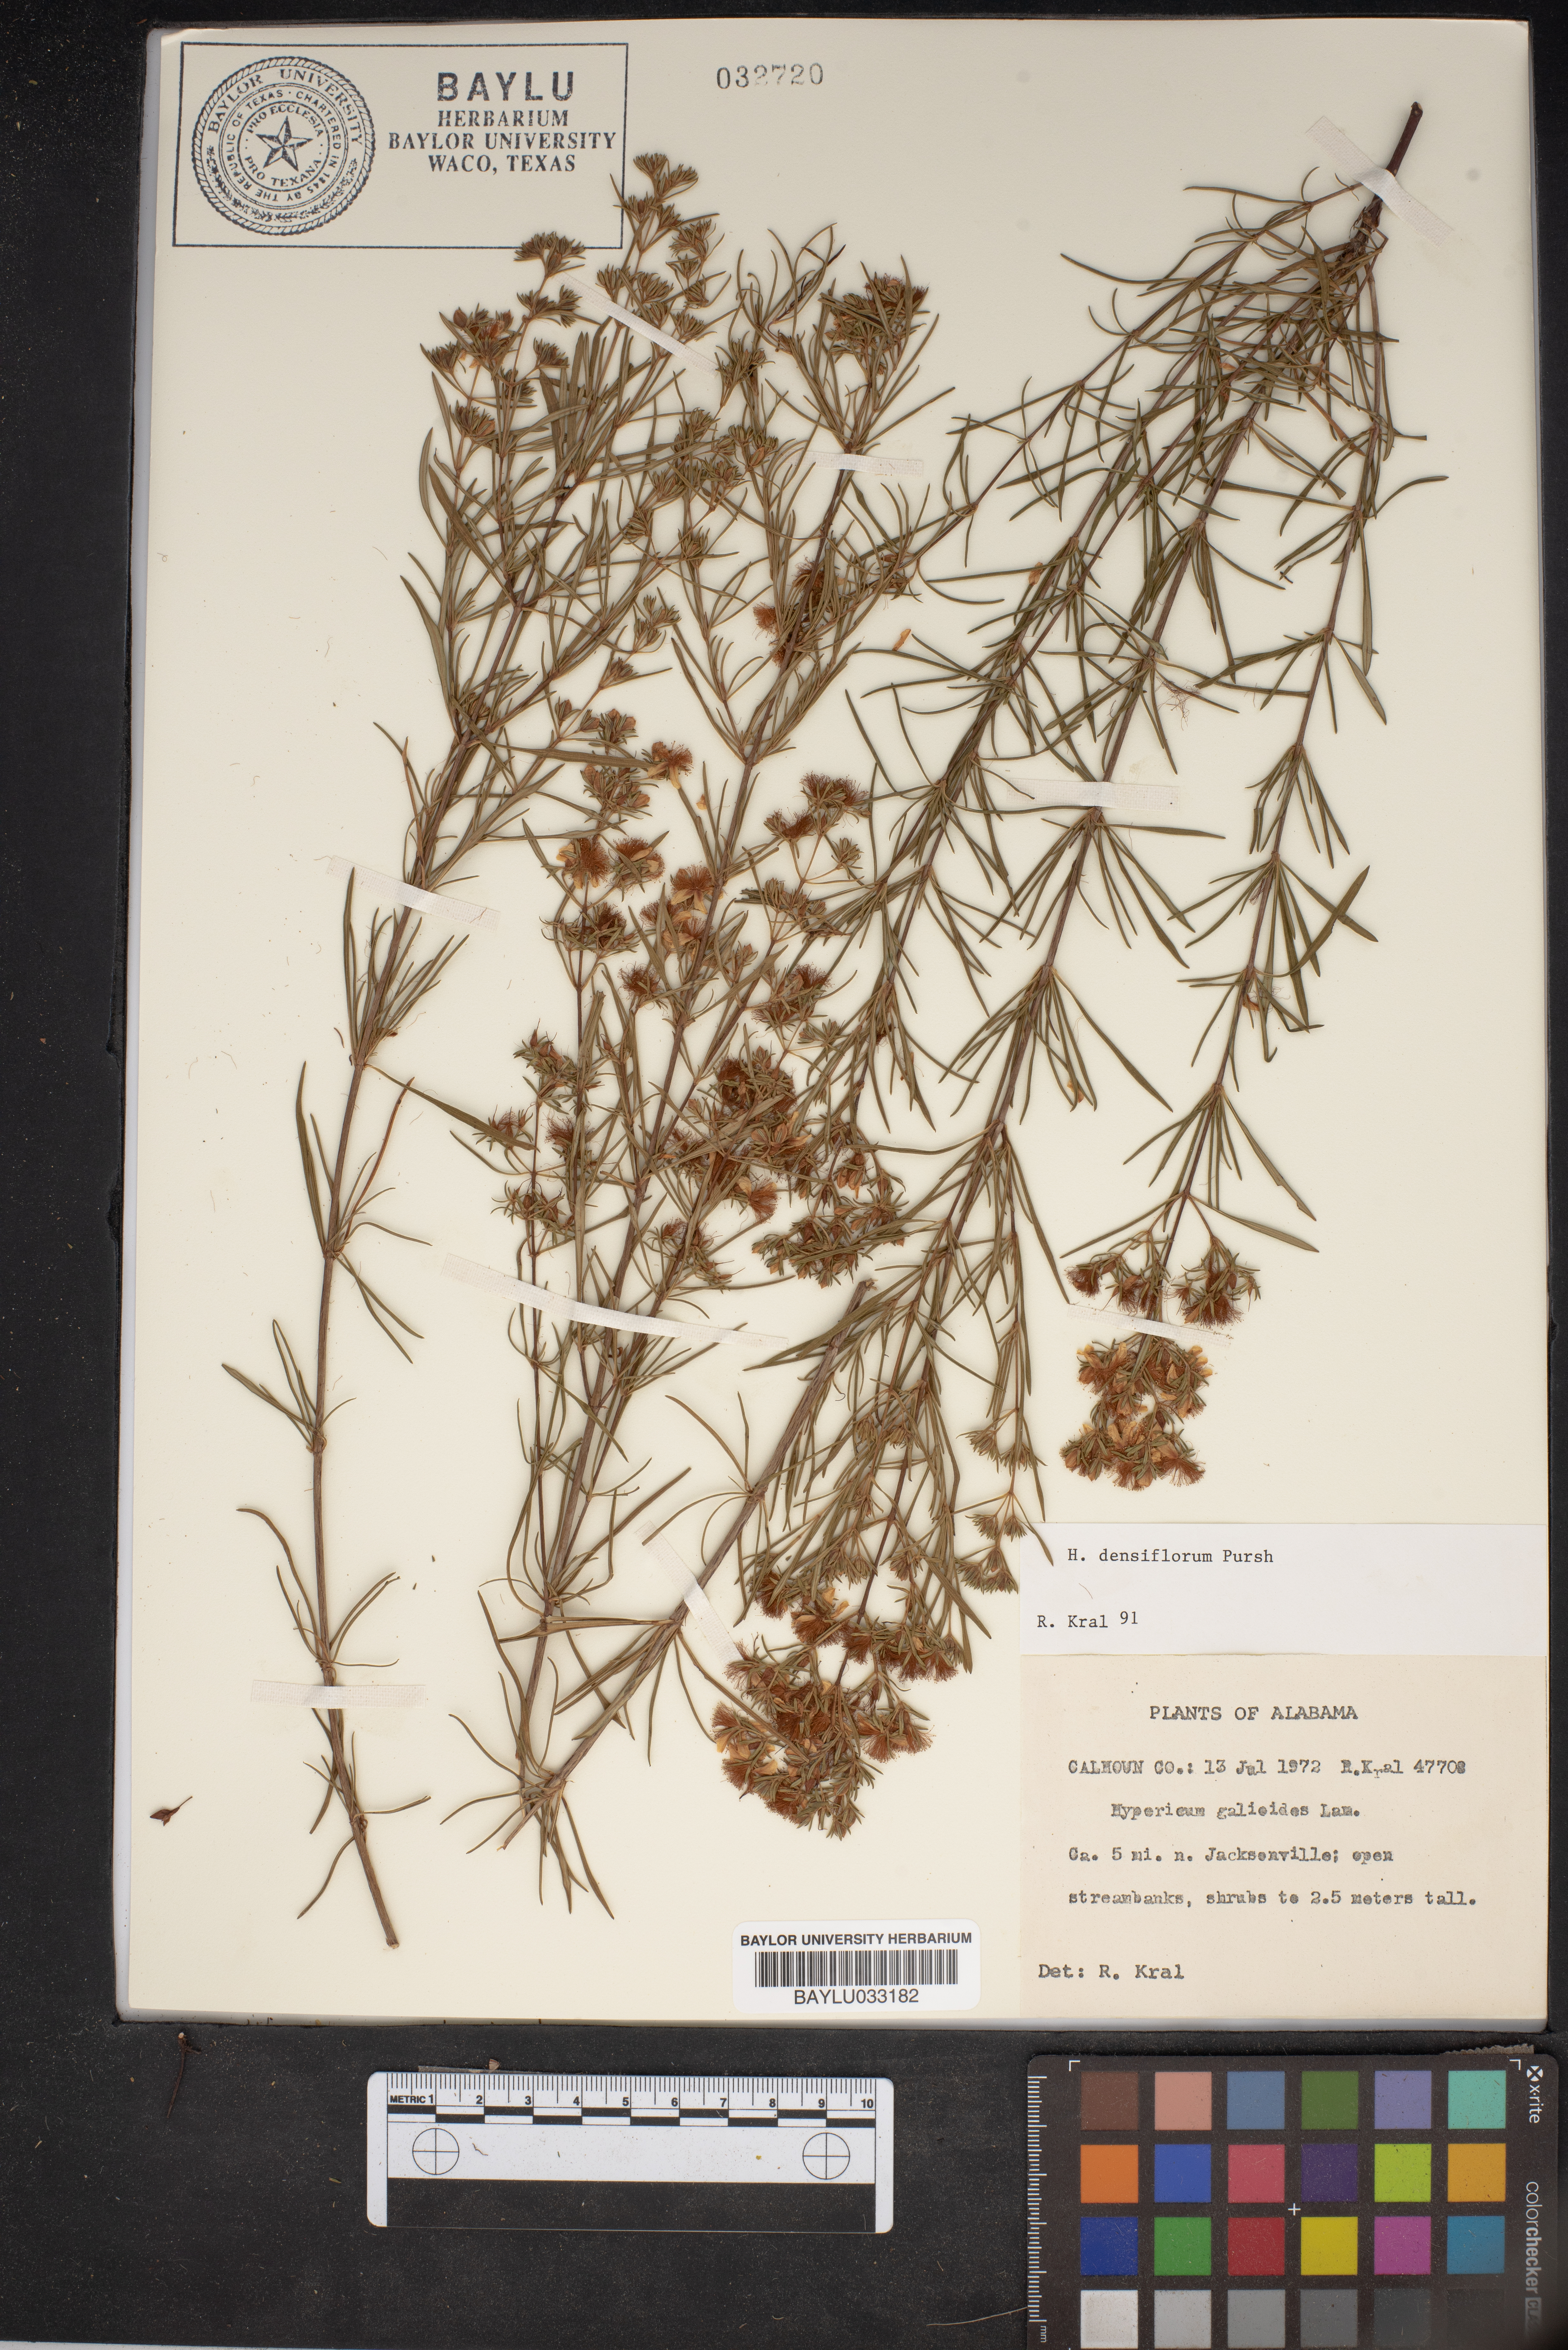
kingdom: Plantae
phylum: Tracheophyta
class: Magnoliopsida
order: Malpighiales
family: Hypericaceae
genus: Hypericum
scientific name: Hypericum galioides
